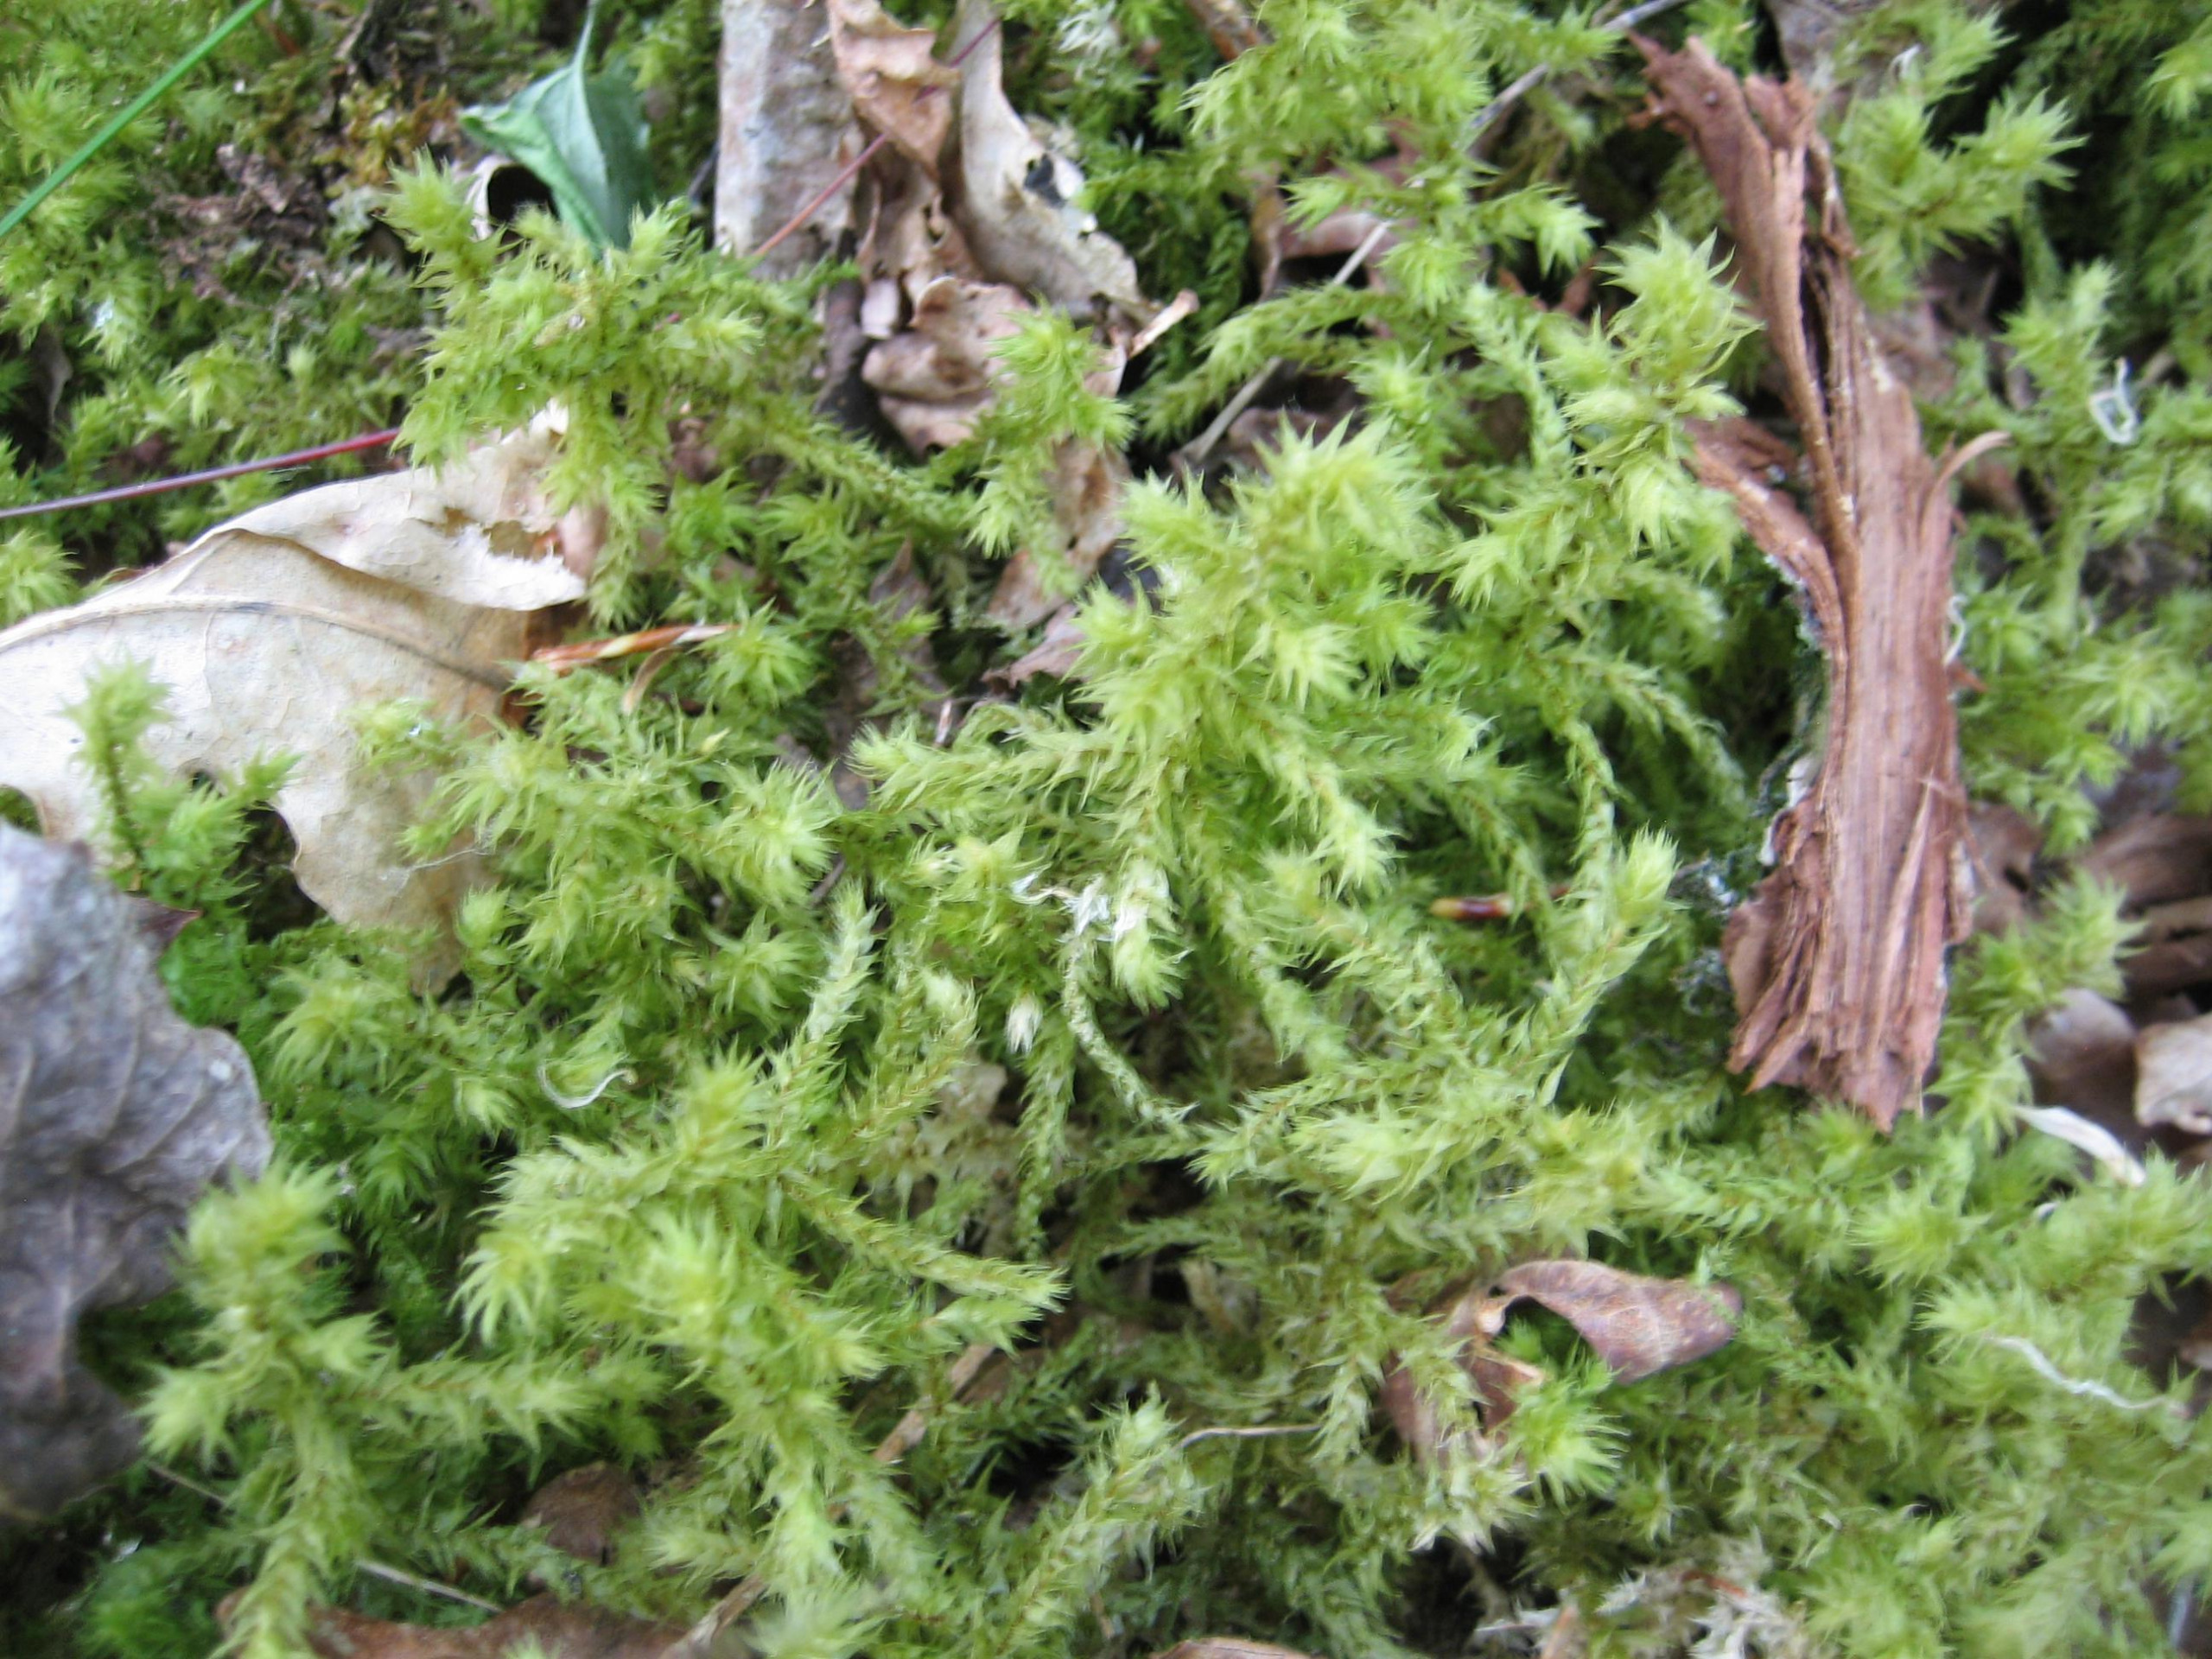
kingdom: Plantae
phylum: Bryophyta
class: Bryopsida
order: Hypnales
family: Hylocomiaceae
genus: Hylocomiadelphus
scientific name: Hylocomiadelphus triquetrus
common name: Stor kransemos
